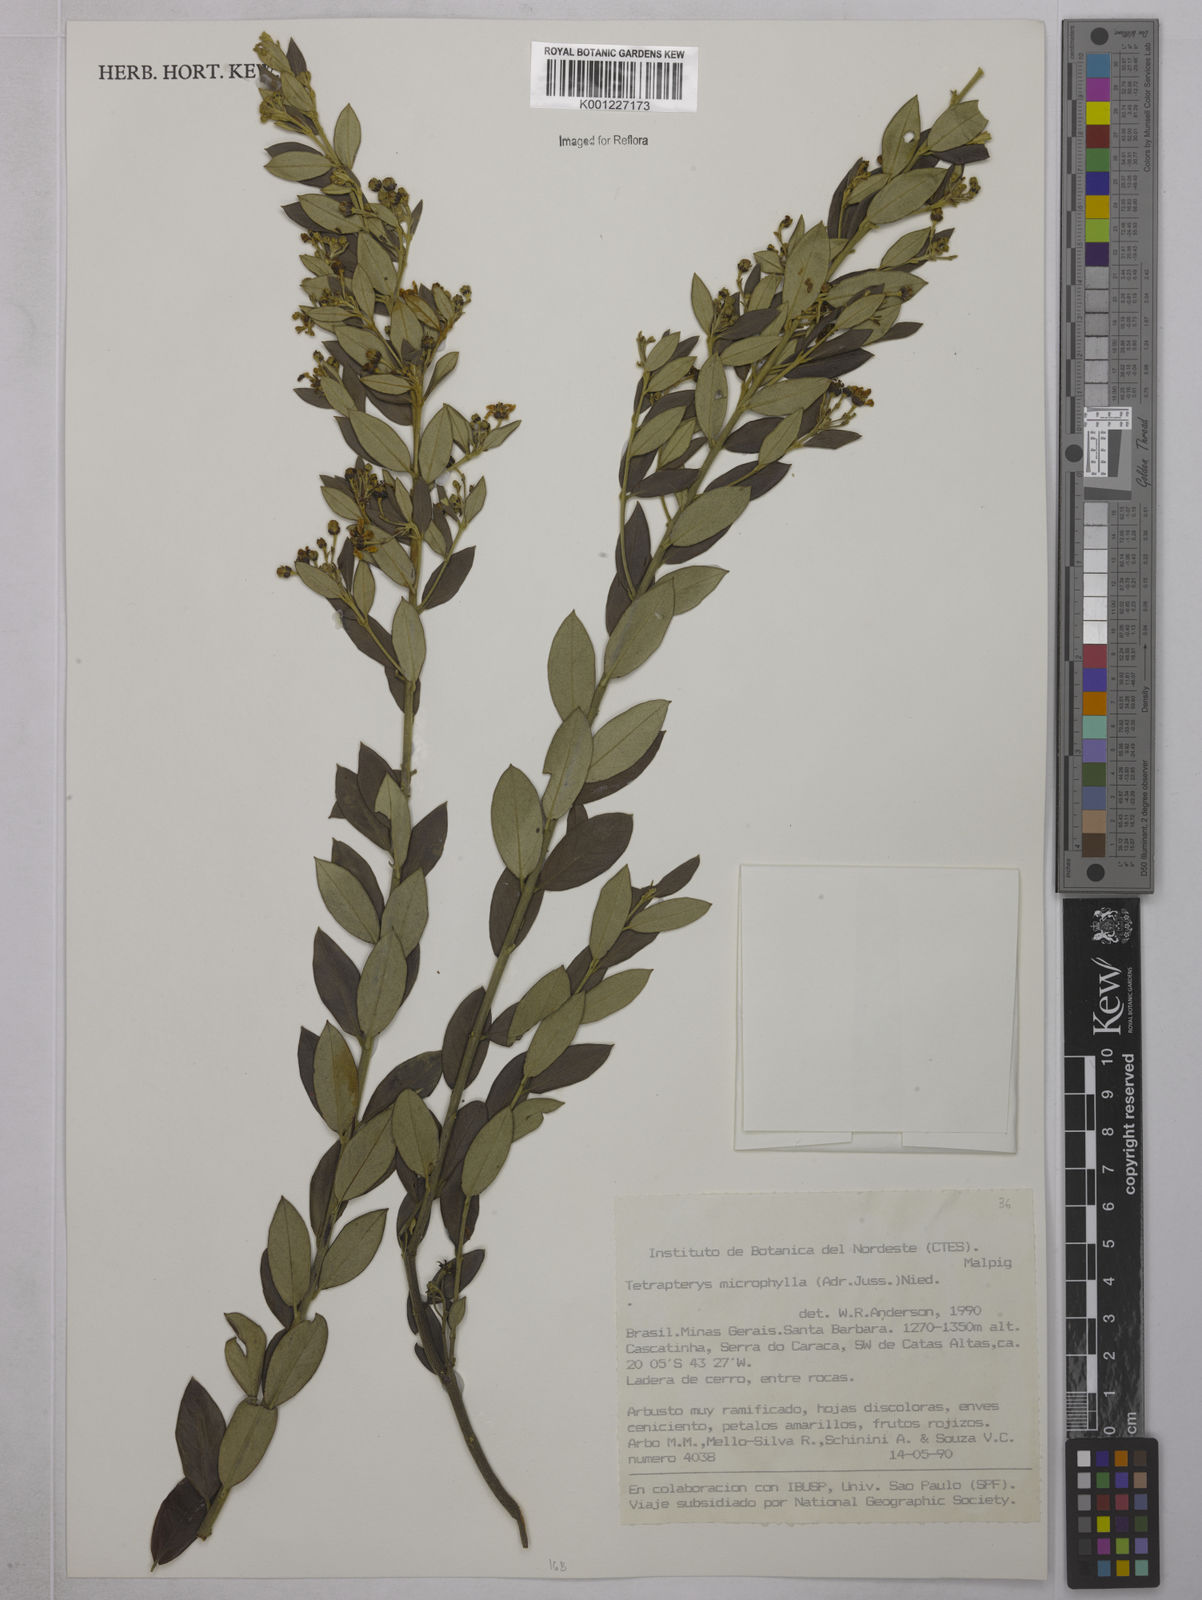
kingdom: Plantae
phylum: Tracheophyta
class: Magnoliopsida
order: Malpighiales
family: Malpighiaceae
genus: Glicophyllum
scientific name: Glicophyllum microphyllum
